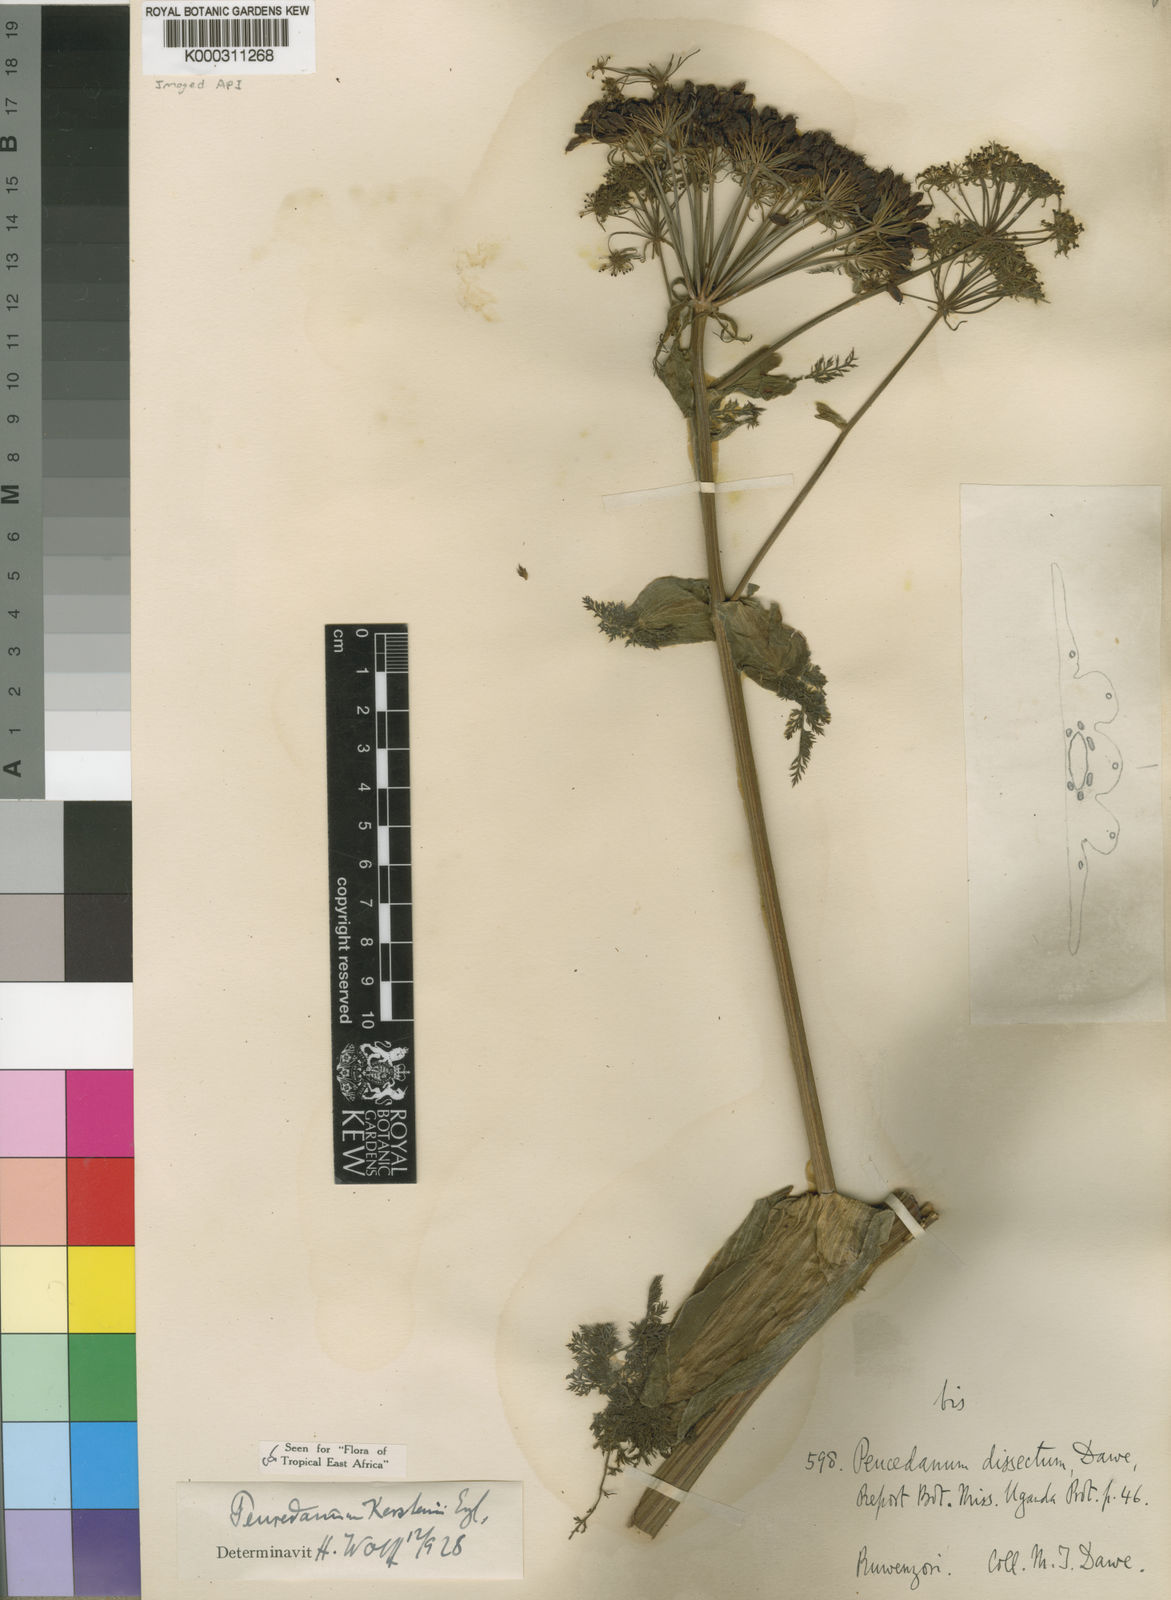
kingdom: Plantae
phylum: Tracheophyta
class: Magnoliopsida
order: Apiales
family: Apiaceae
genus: Afrosciadium
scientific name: Afrosciadium kerstenii
